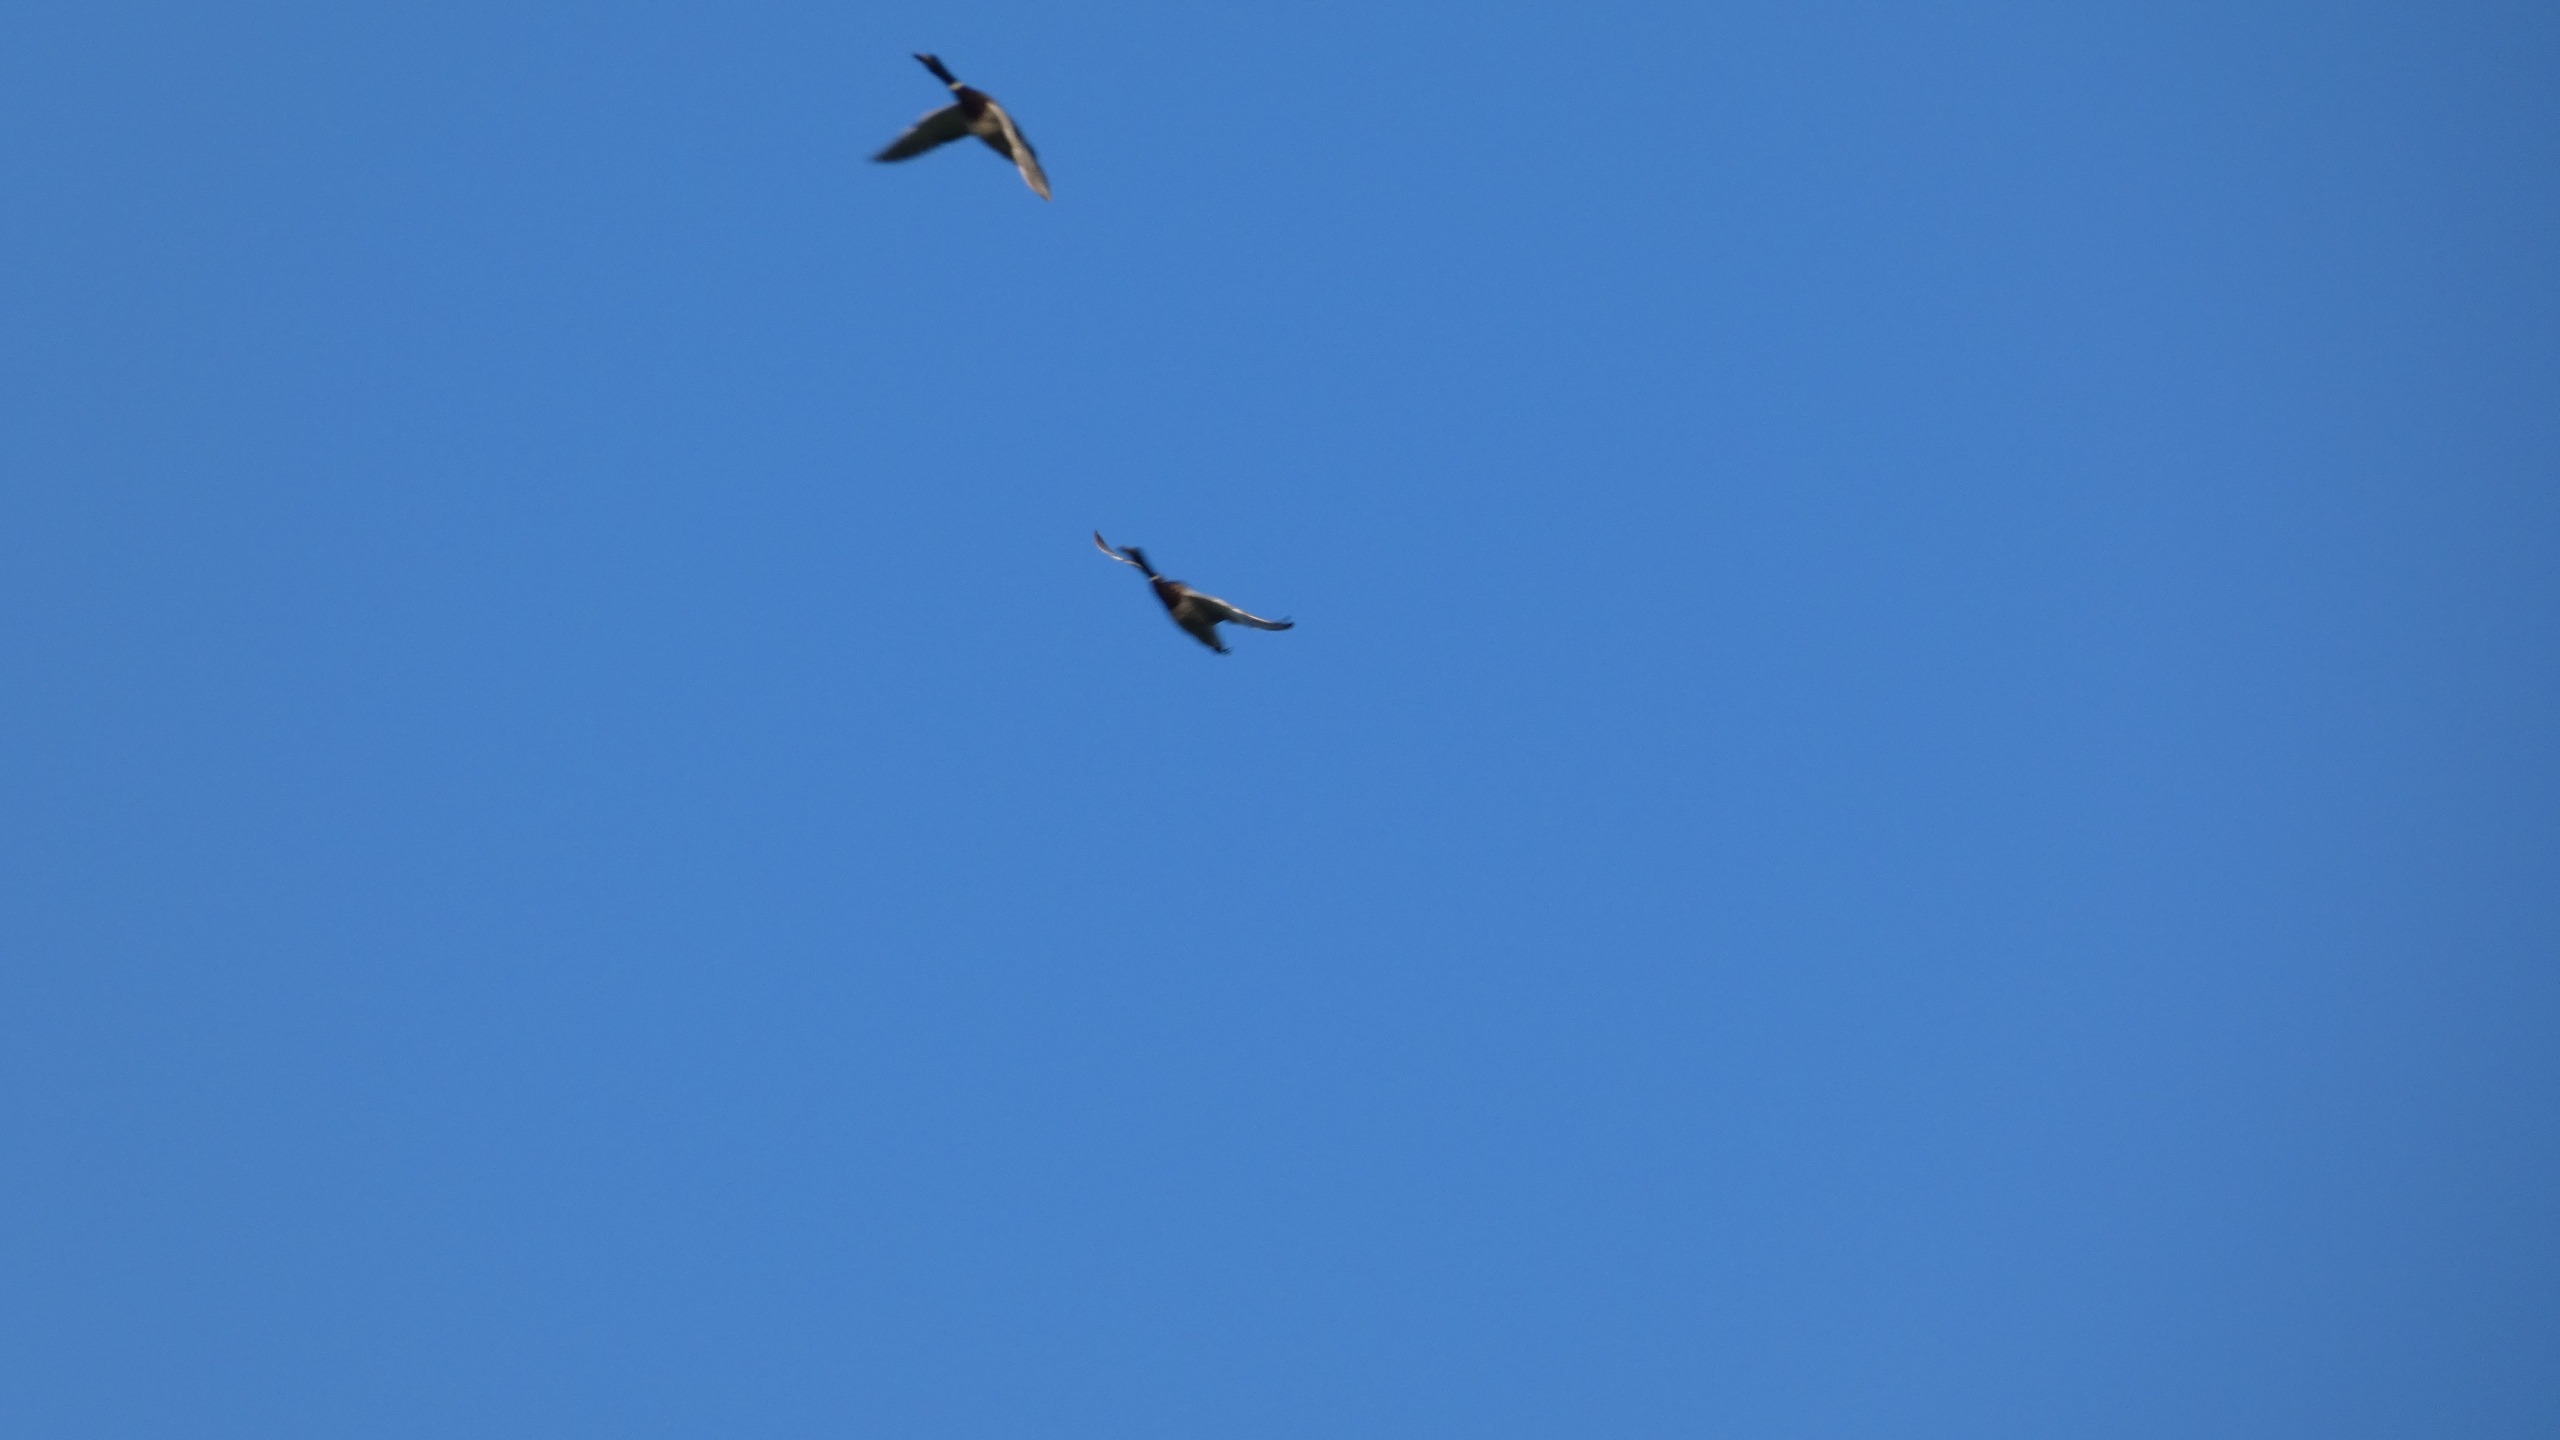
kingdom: Animalia
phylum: Chordata
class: Aves
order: Anseriformes
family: Anatidae
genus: Anas
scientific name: Anas platyrhynchos
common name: Gråand
